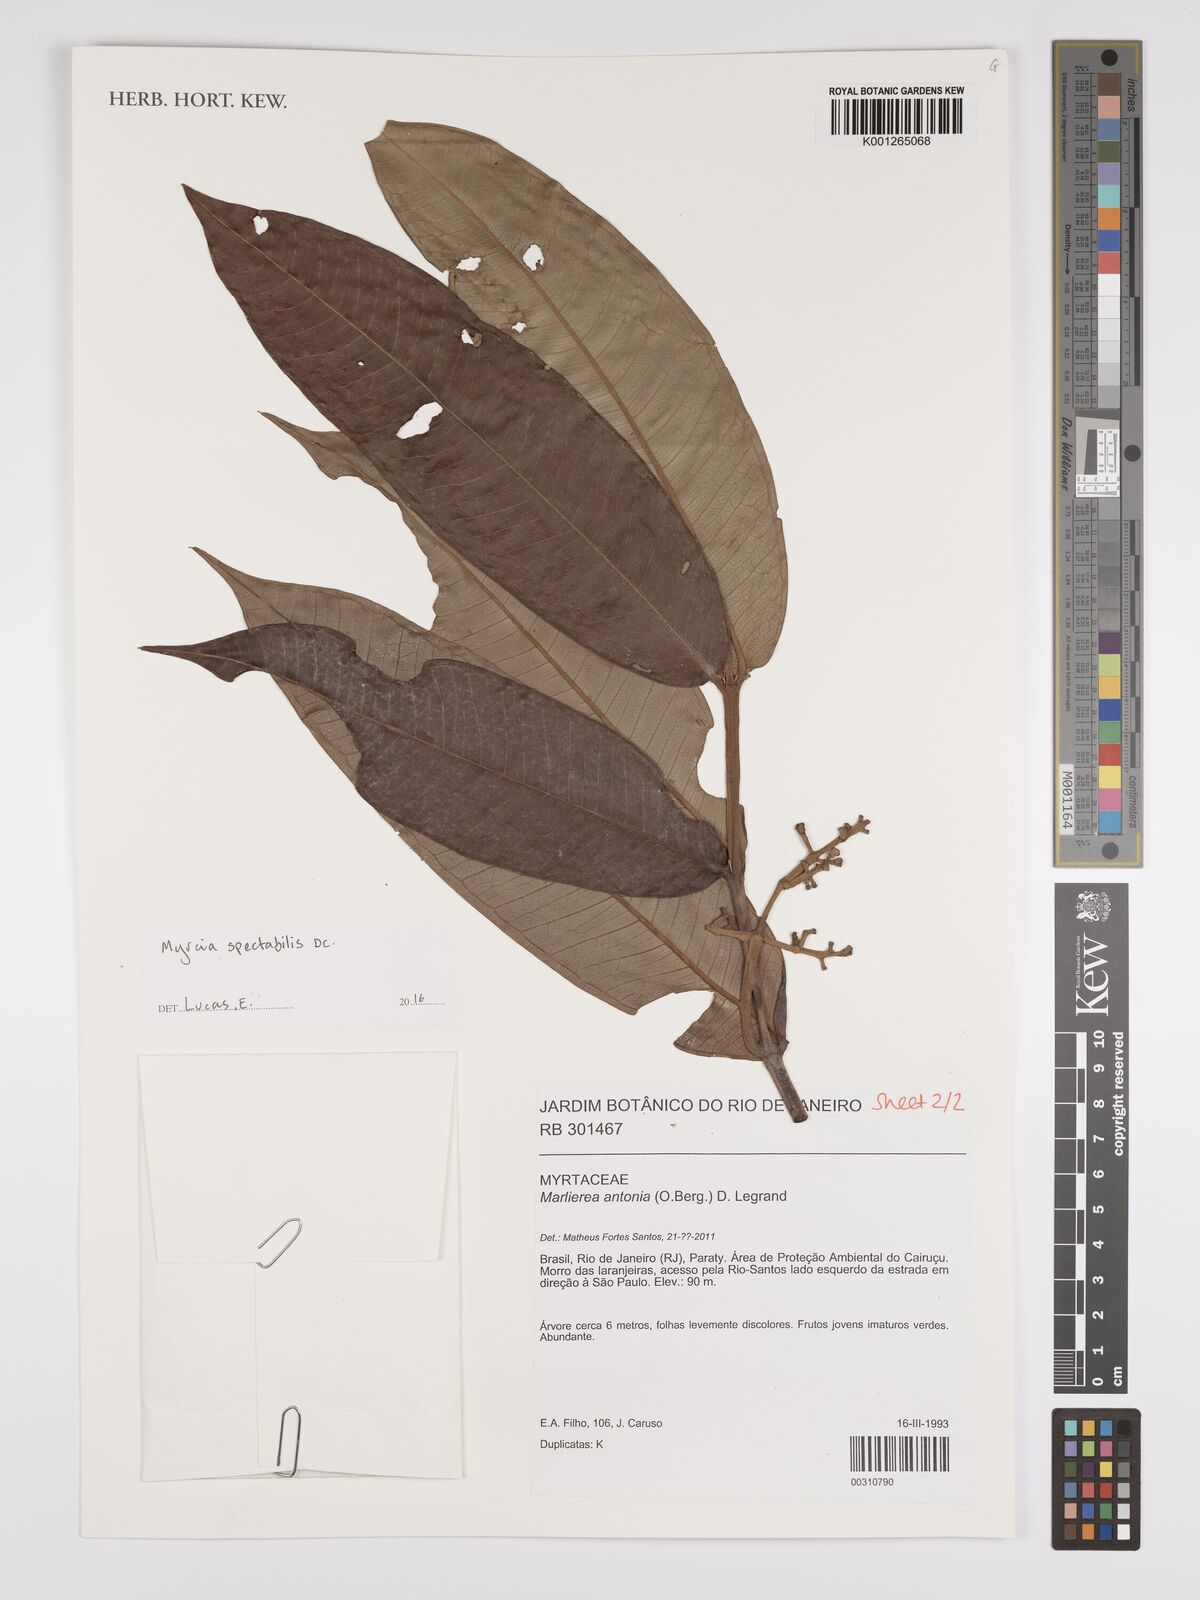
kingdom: Plantae
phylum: Tracheophyta
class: Magnoliopsida
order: Myrtales
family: Myrtaceae
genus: Myrcia
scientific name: Myrcia spectabilis
